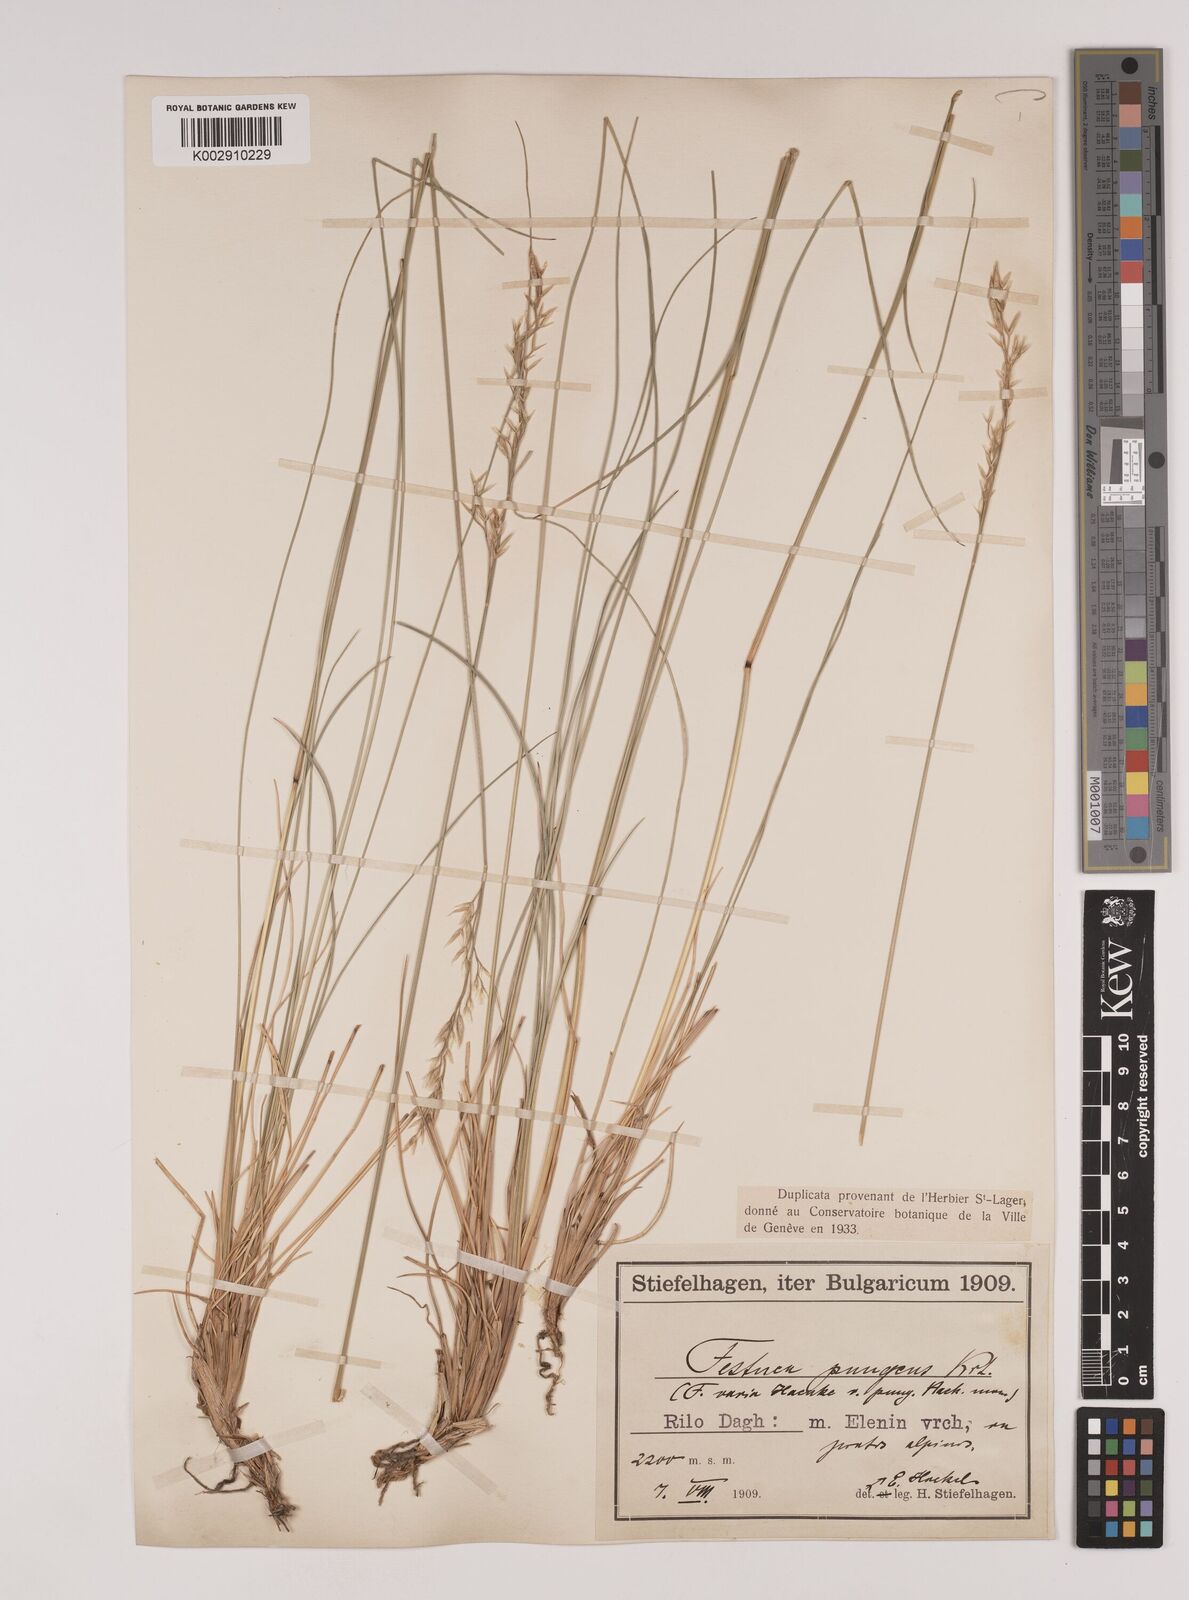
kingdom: Plantae
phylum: Tracheophyta
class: Liliopsida
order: Poales
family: Poaceae
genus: Festuca
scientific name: Festuca bosniaca
